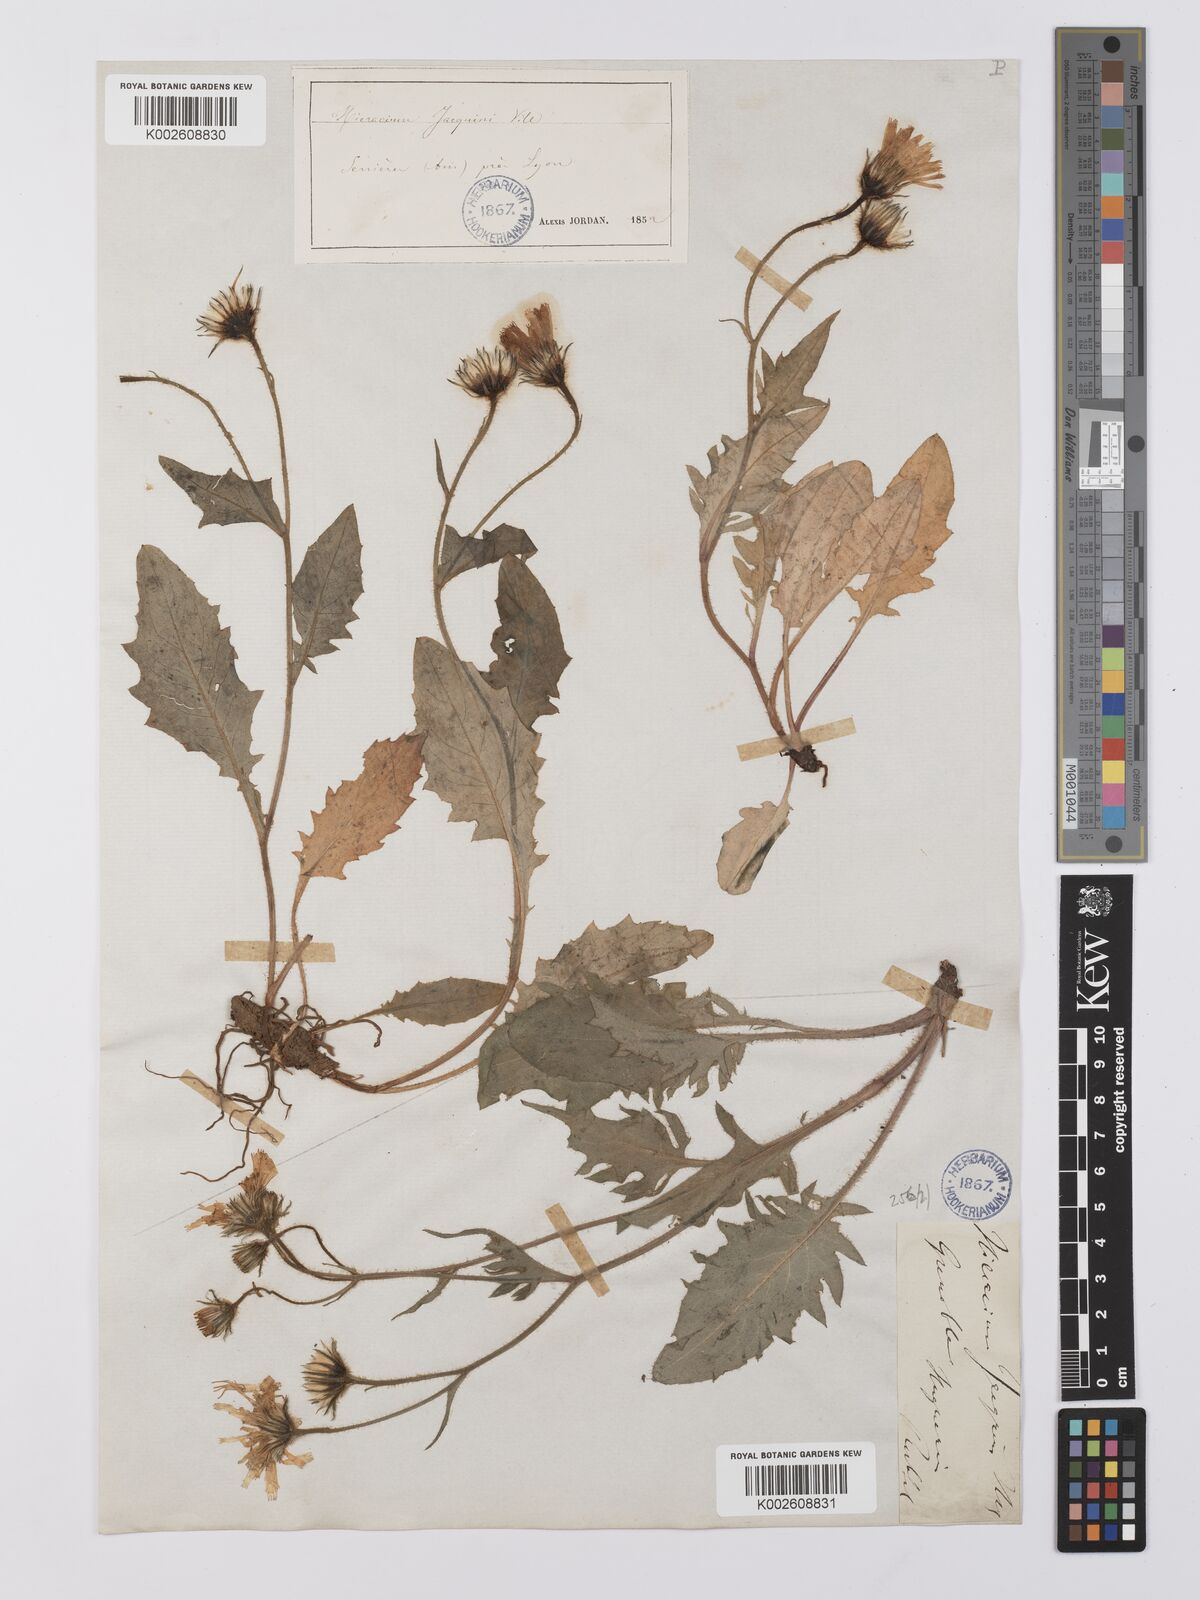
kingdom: Plantae
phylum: Tracheophyta
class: Magnoliopsida
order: Asterales
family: Asteraceae
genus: Hieracium
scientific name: Hieracium cottetii
